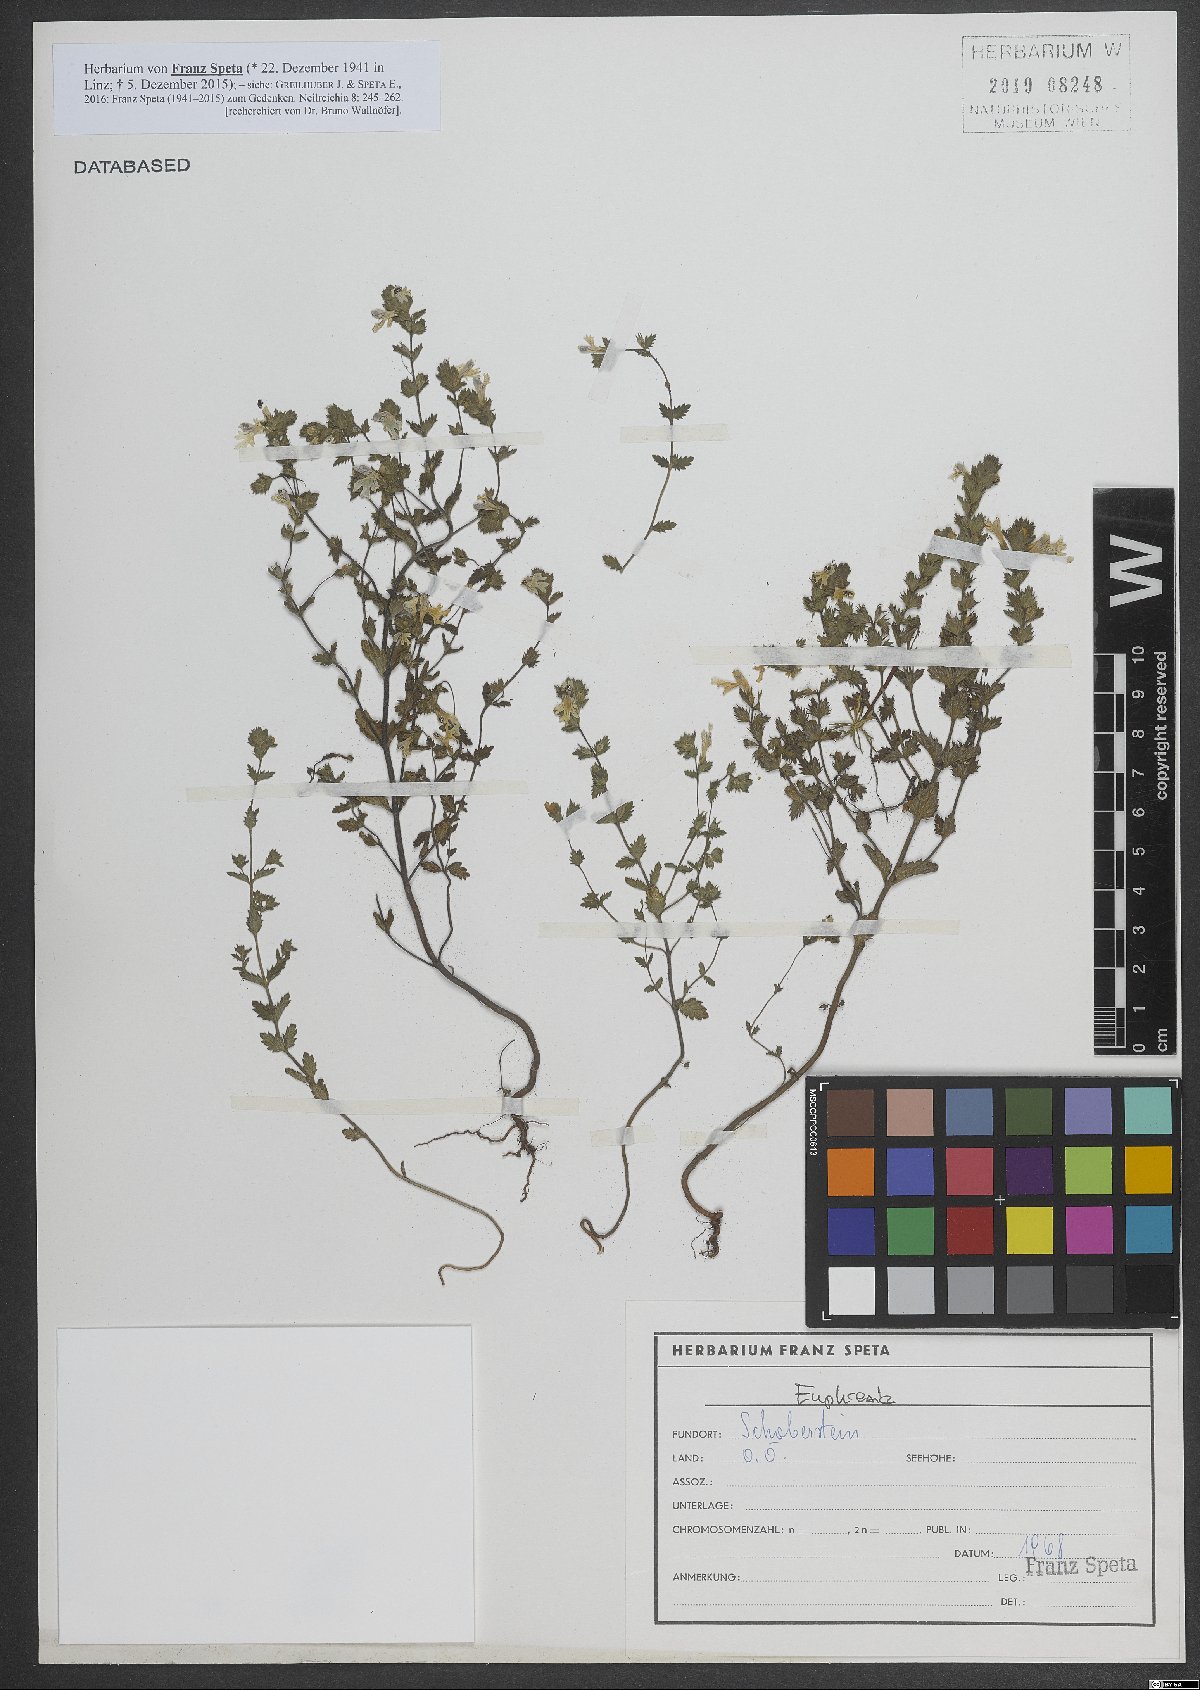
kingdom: Plantae
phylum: Tracheophyta
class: Magnoliopsida
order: Lamiales
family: Orobanchaceae
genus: Euphrasia
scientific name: Euphrasia
